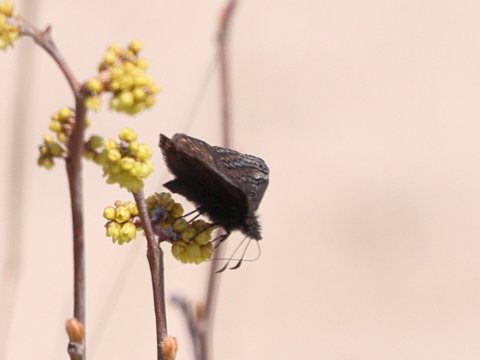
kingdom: Animalia
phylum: Arthropoda
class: Insecta
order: Lepidoptera
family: Hesperiidae
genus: Erynnis
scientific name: Erynnis brizo
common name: Sleepy Duskywing
